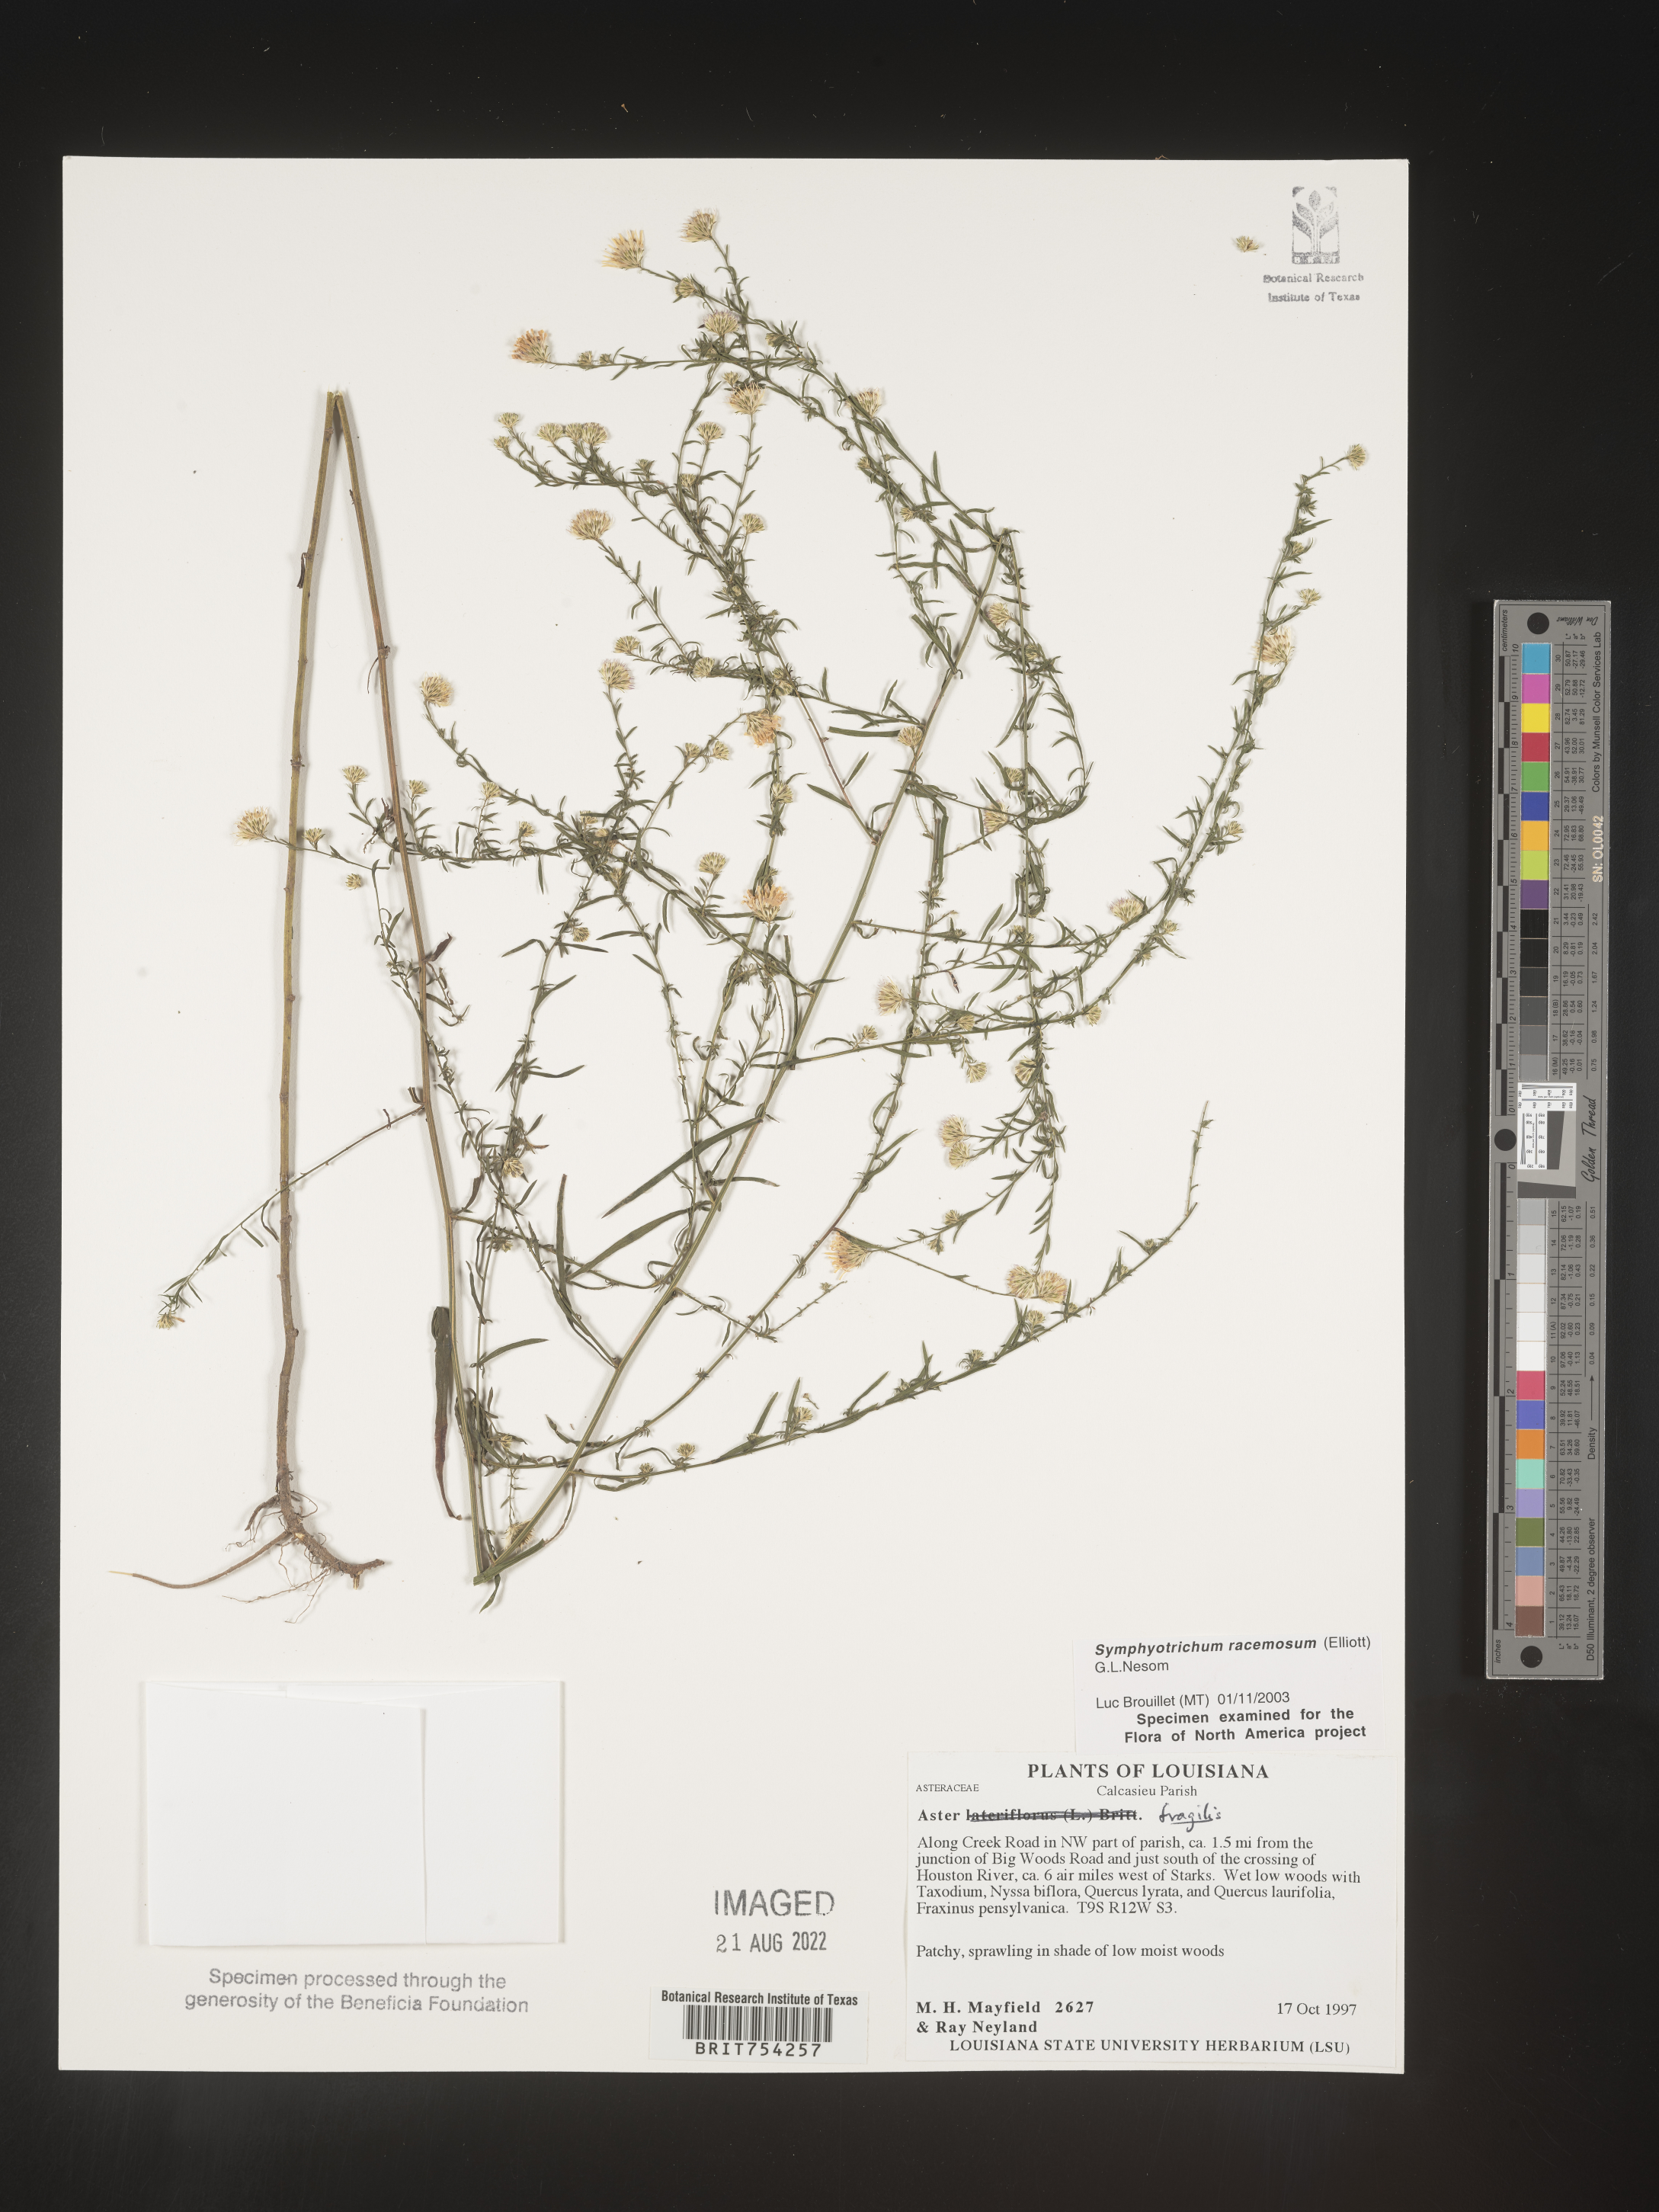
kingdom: Plantae
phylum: Tracheophyta
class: Magnoliopsida
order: Asterales
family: Asteraceae
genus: Symphyotrichum
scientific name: Symphyotrichum racemosum
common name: Small white aster
